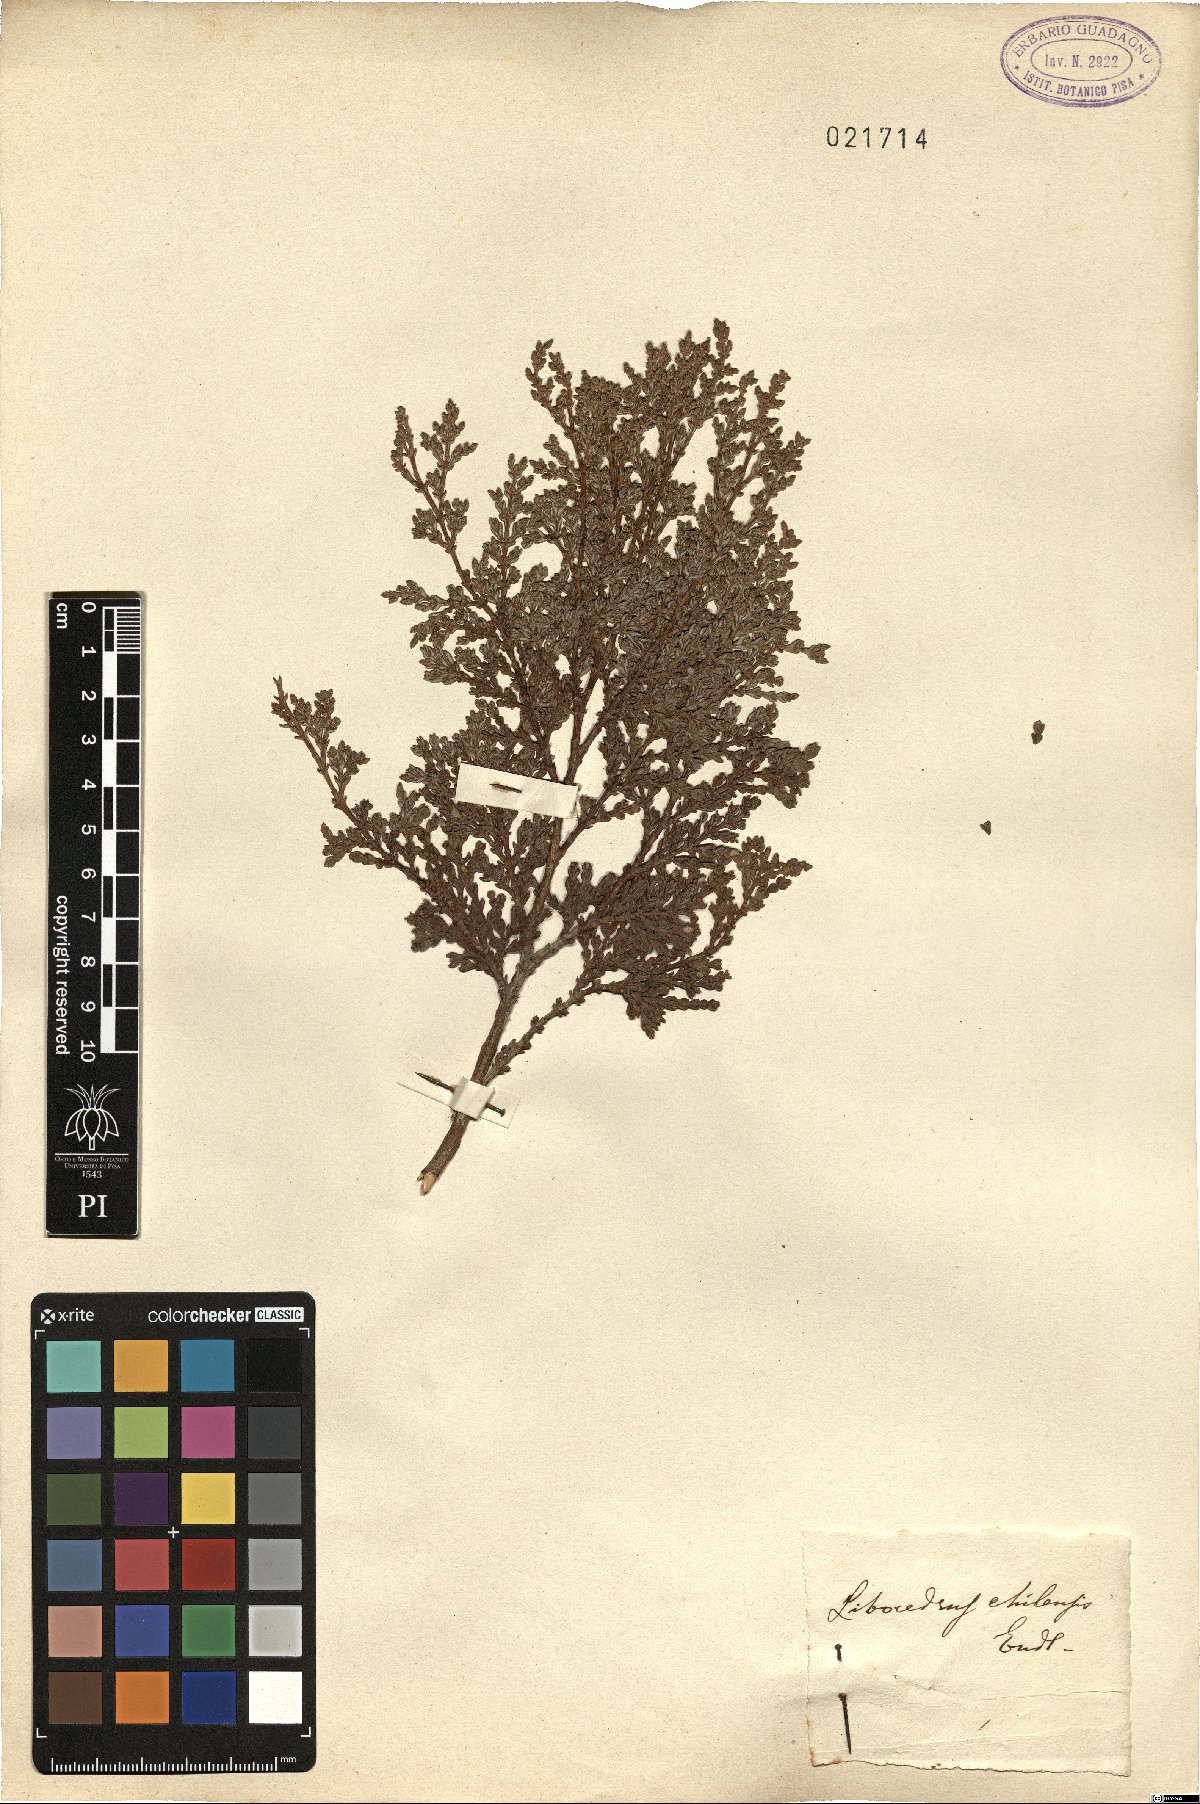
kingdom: Plantae
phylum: Tracheophyta
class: Pinopsida
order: Pinales
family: Cupressaceae
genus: Libocedrus
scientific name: Libocedrus
